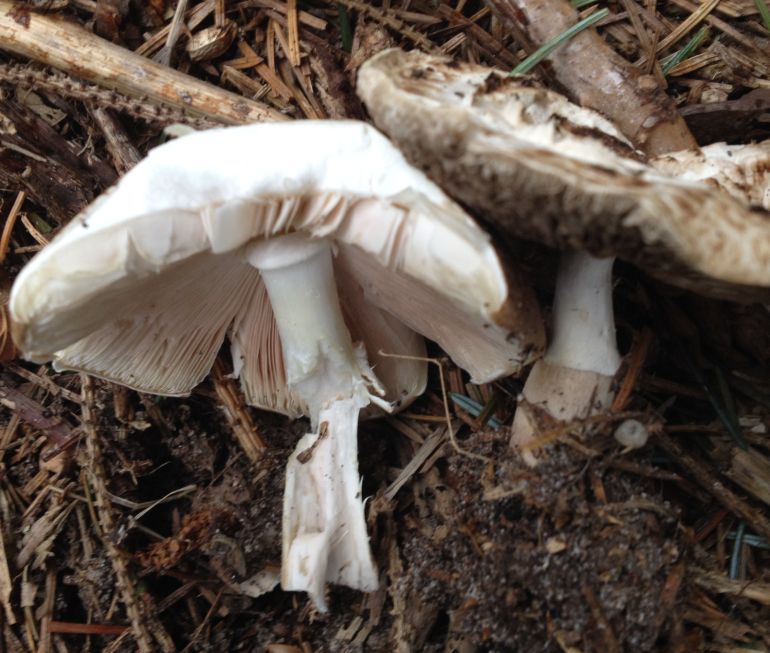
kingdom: Fungi
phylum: Basidiomycota
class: Agaricomycetes
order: Agaricales
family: Agaricaceae
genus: Agaricus
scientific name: Agaricus impudicus
